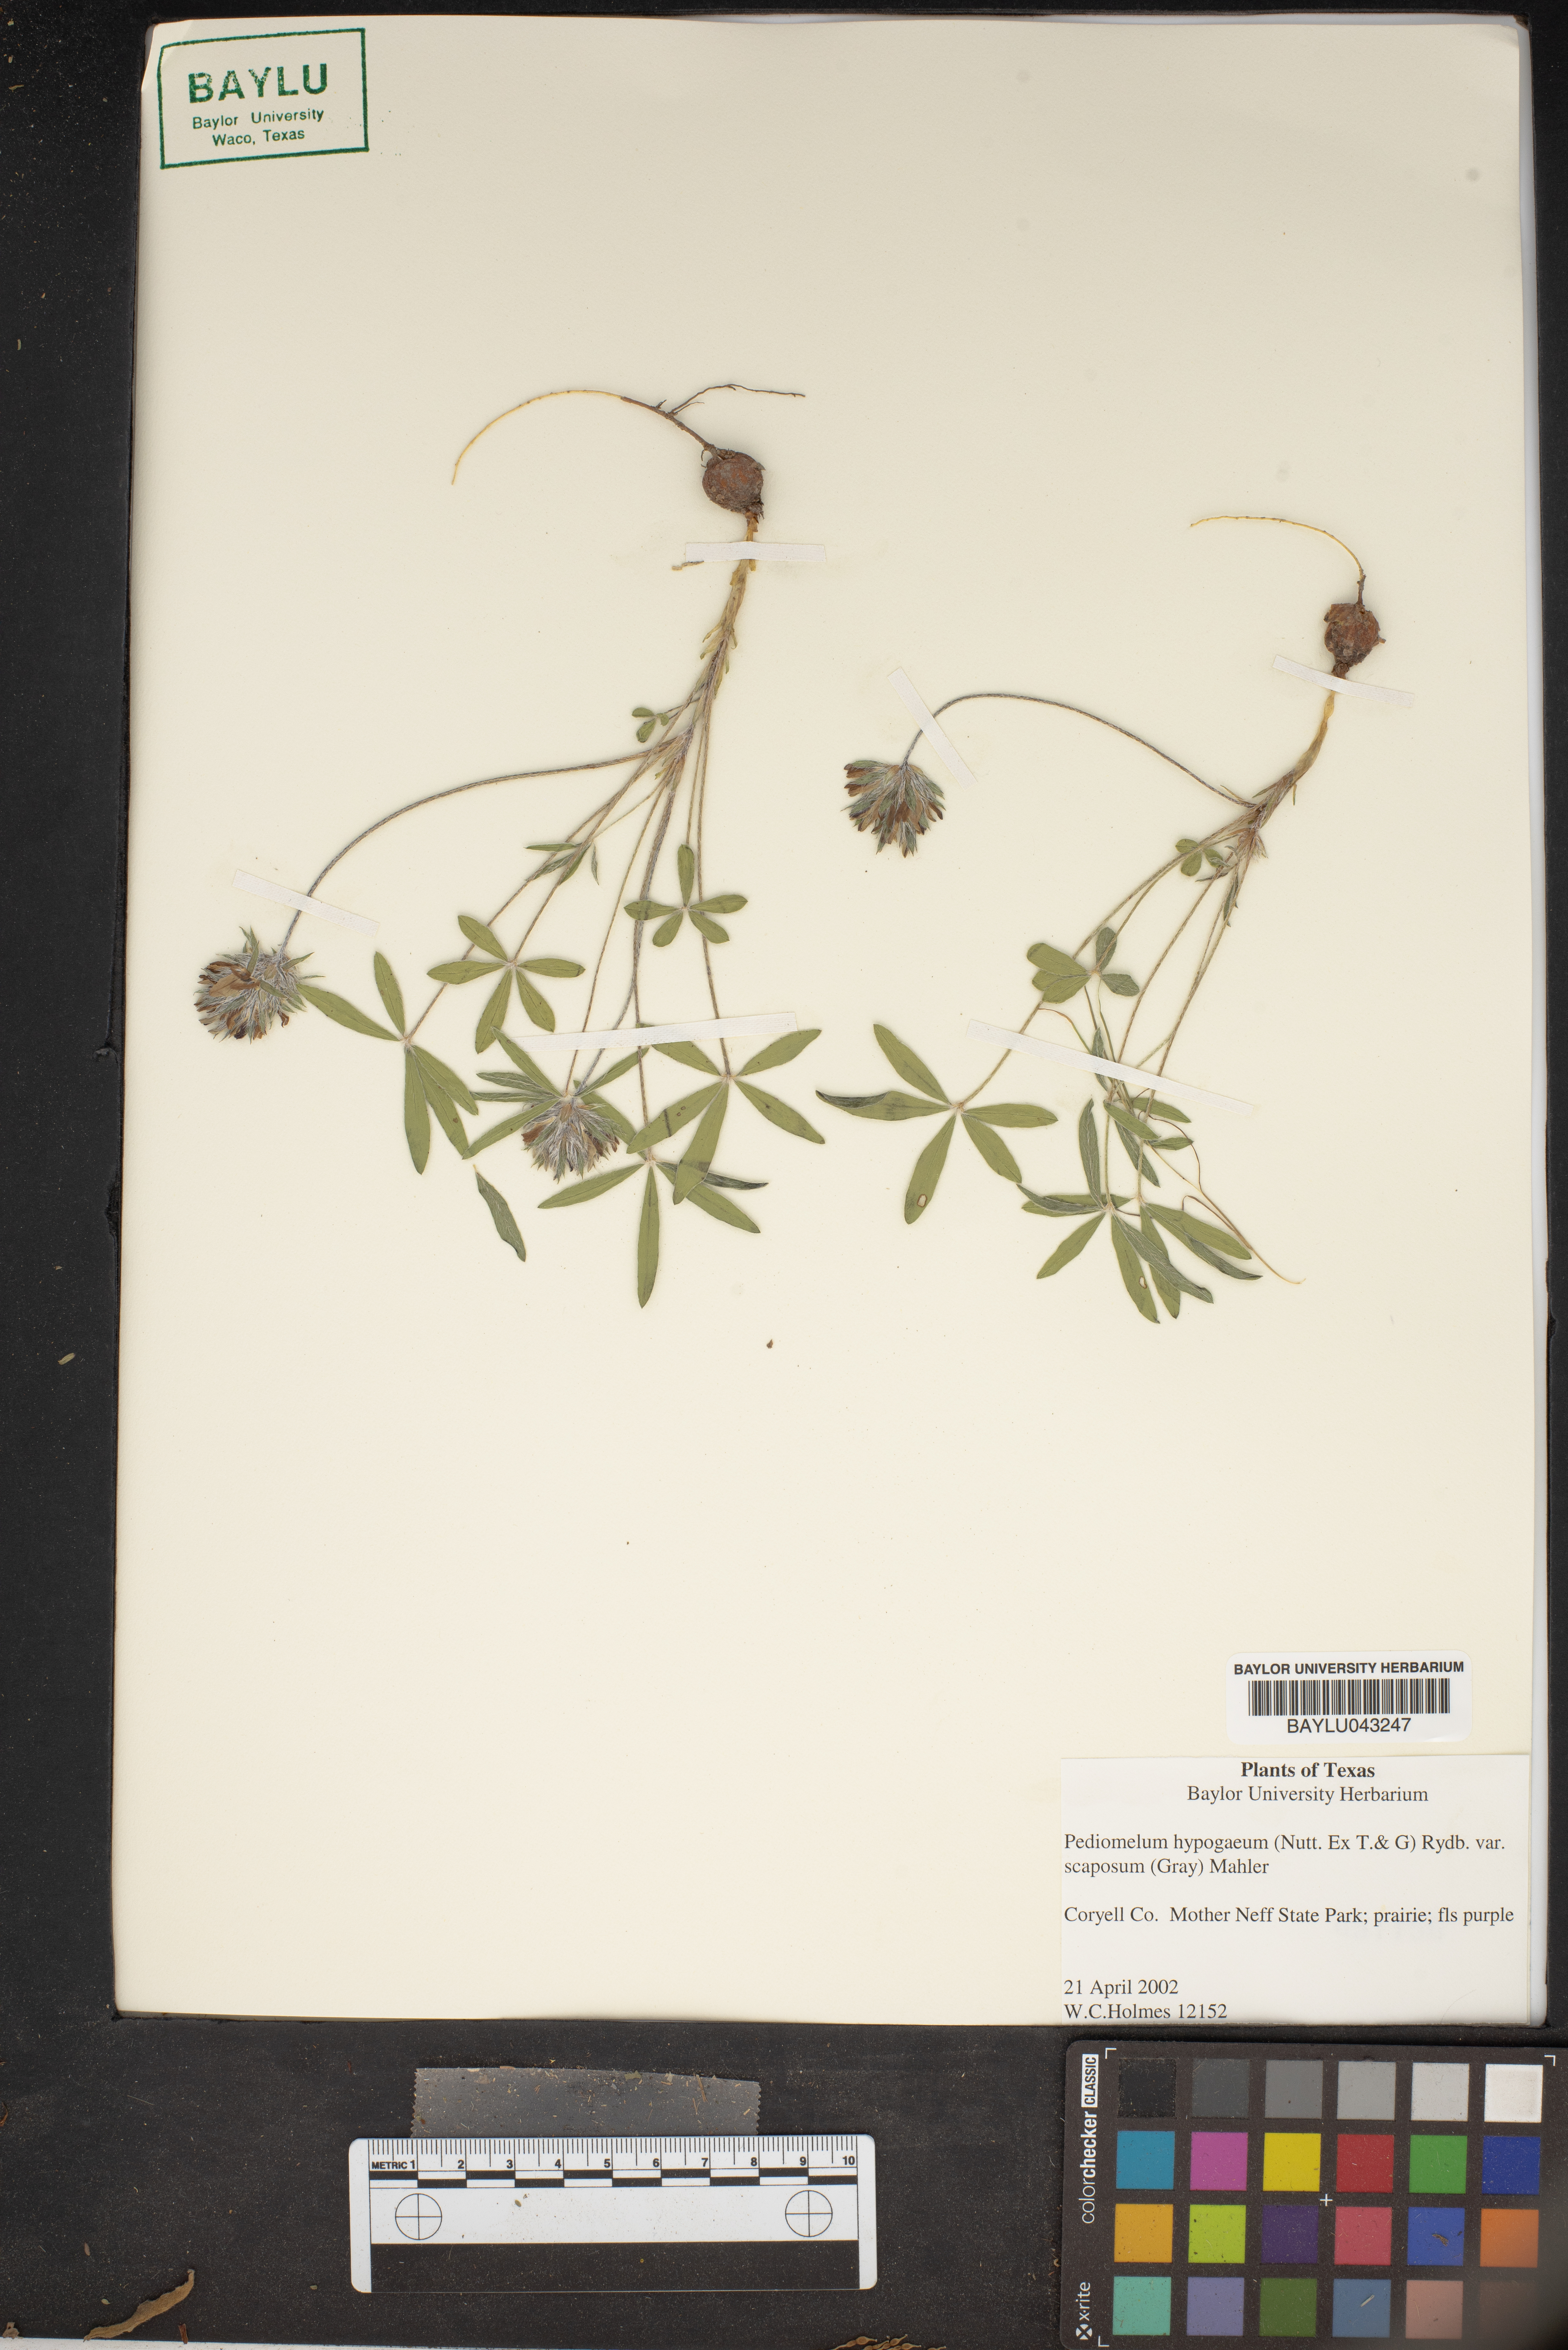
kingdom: Plantae
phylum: Tracheophyta
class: Magnoliopsida
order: Fabales
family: Fabaceae
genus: Pediomelum
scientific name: Pediomelum hypogaeum
